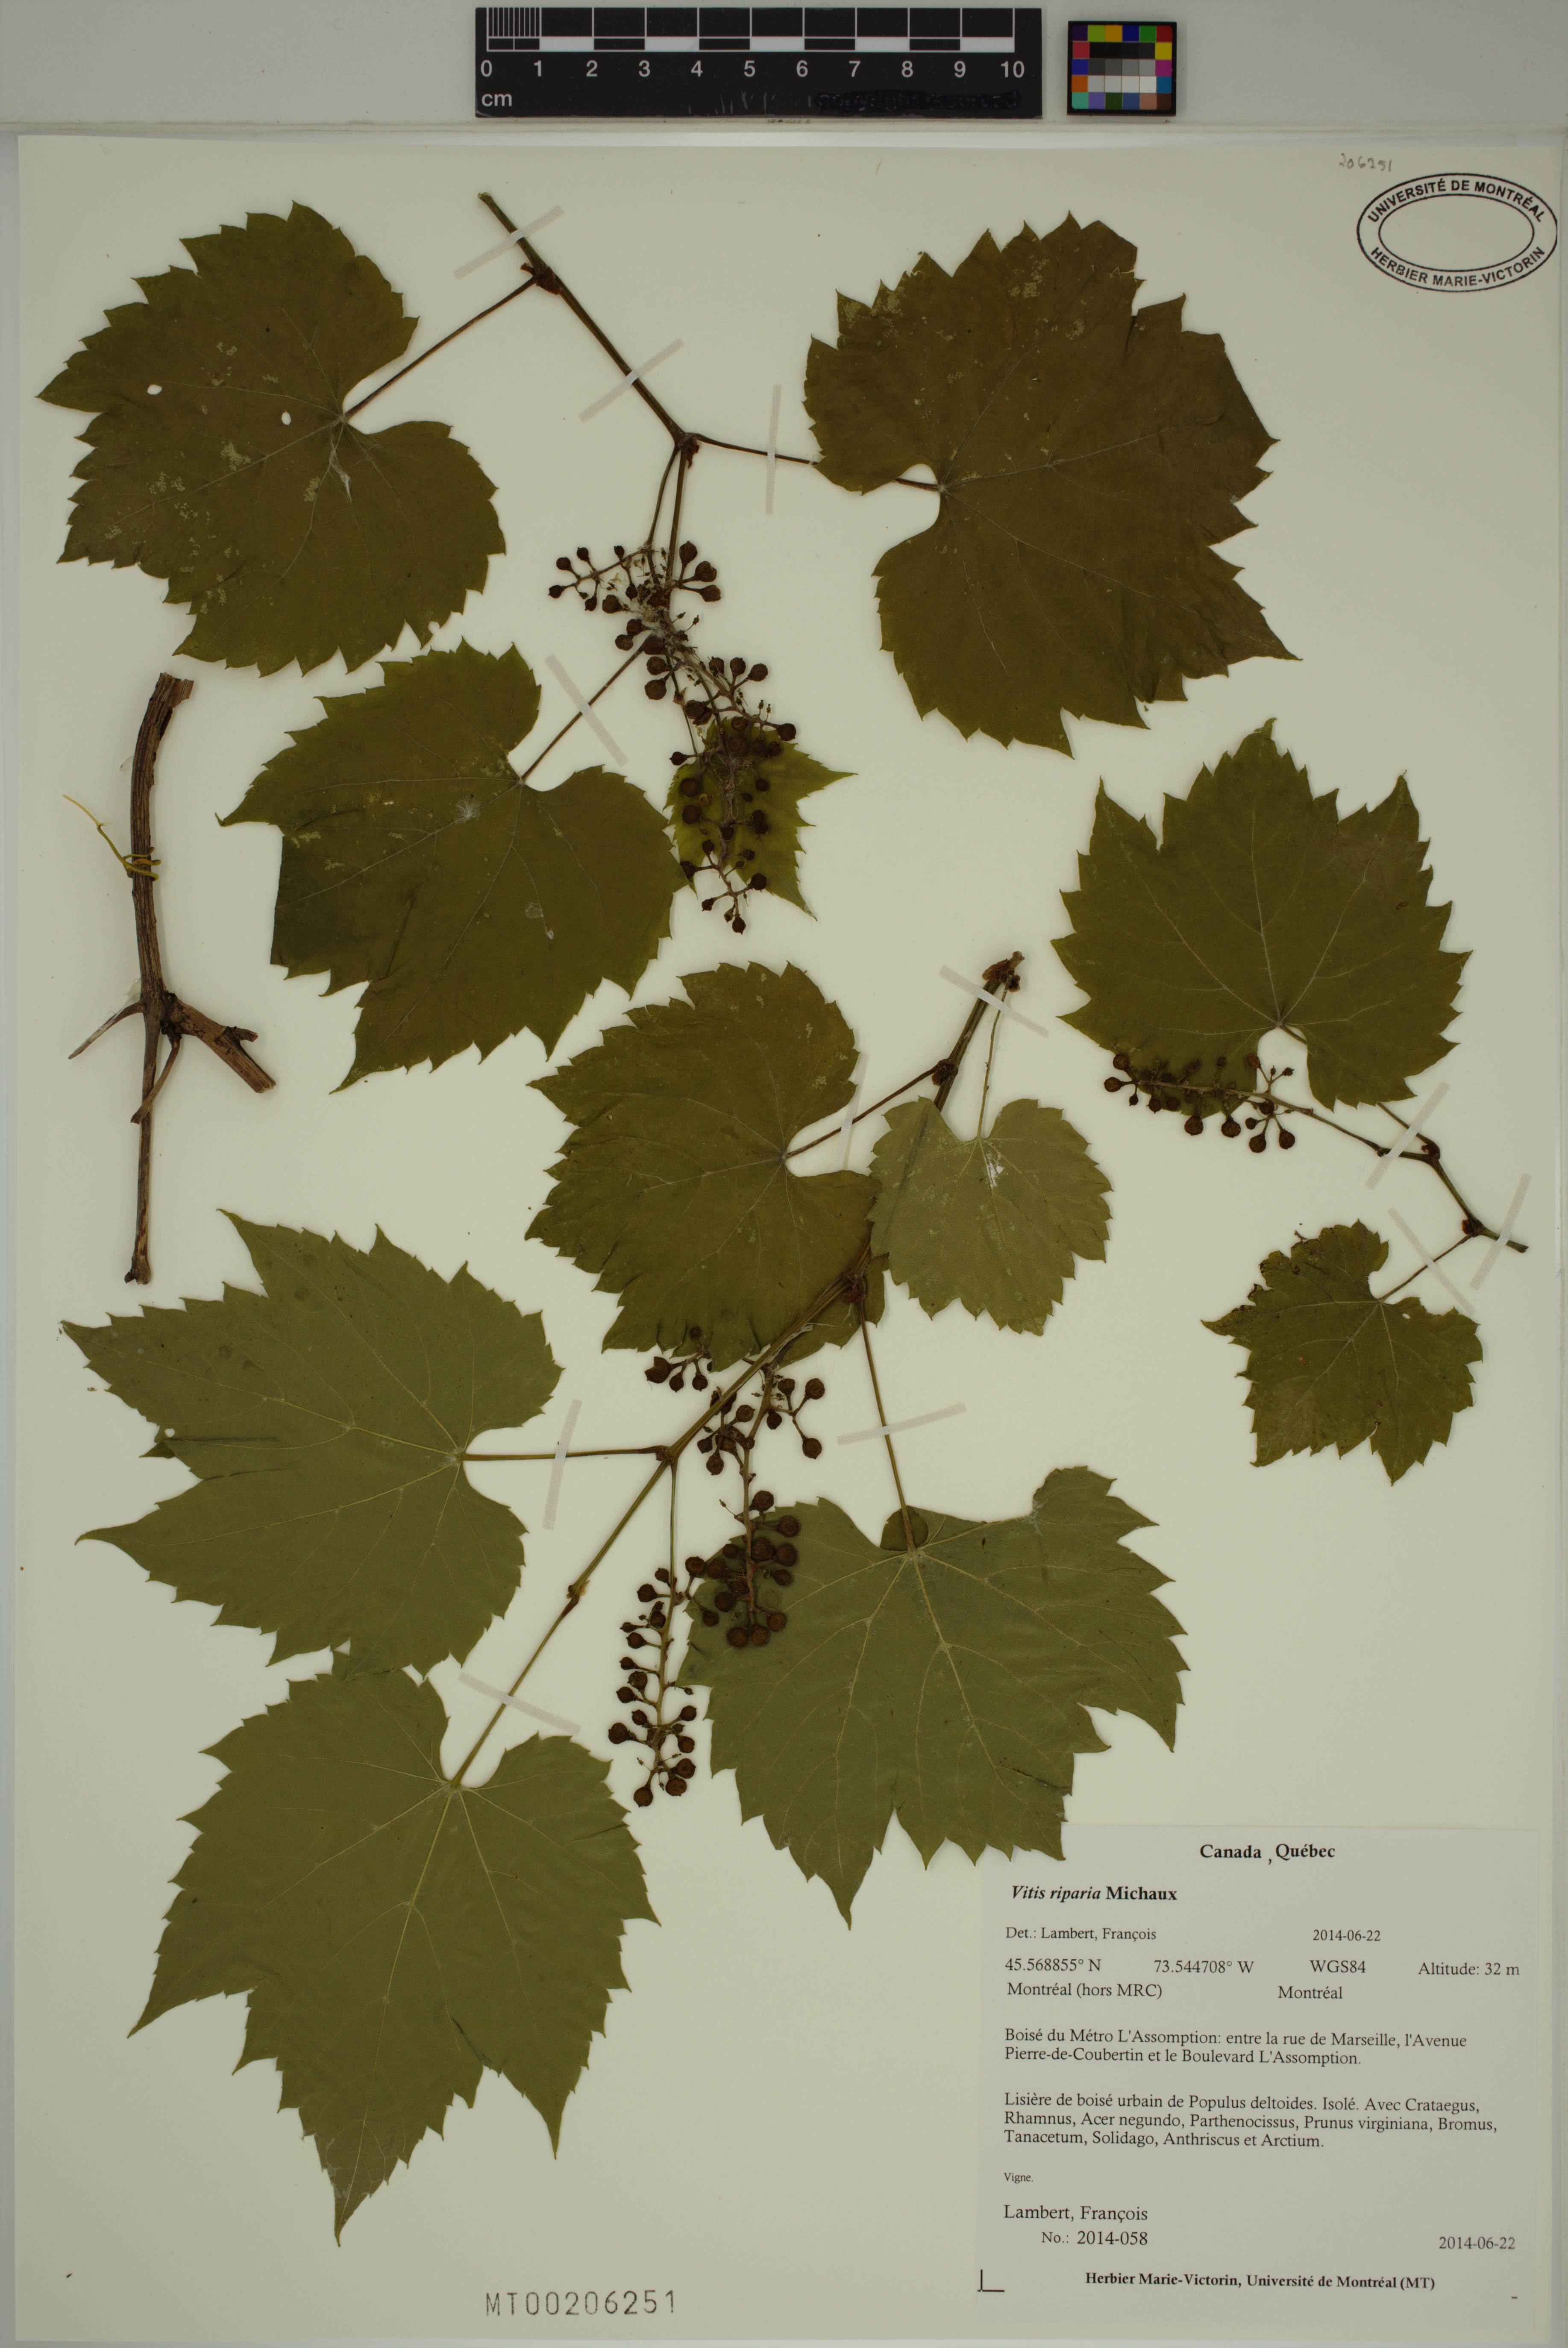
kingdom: Plantae
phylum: Tracheophyta
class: Magnoliopsida
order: Vitales
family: Vitaceae
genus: Vitis
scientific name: Vitis riparia
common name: Frost grape
